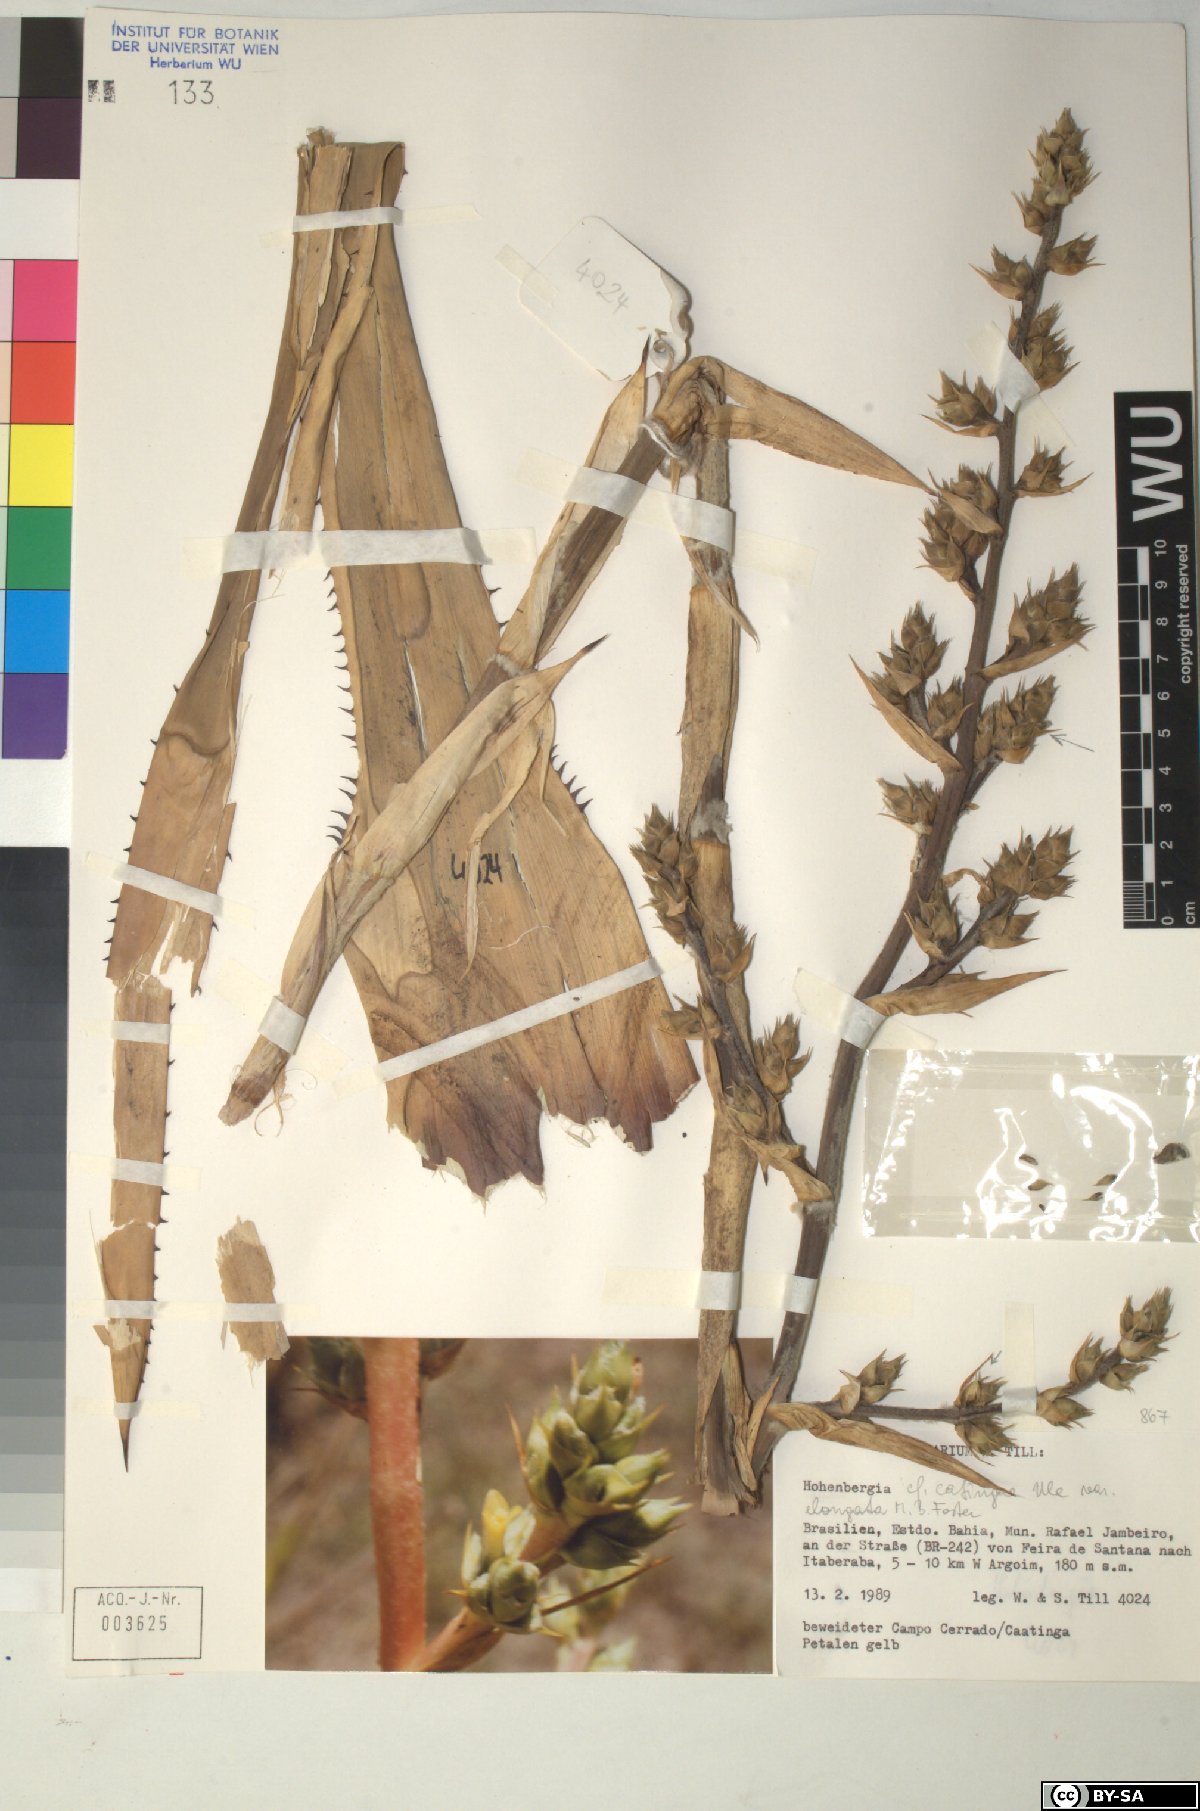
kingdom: Plantae
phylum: Tracheophyta
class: Liliopsida
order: Poales
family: Bromeliaceae
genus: Hohenbergia
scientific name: Hohenbergia
